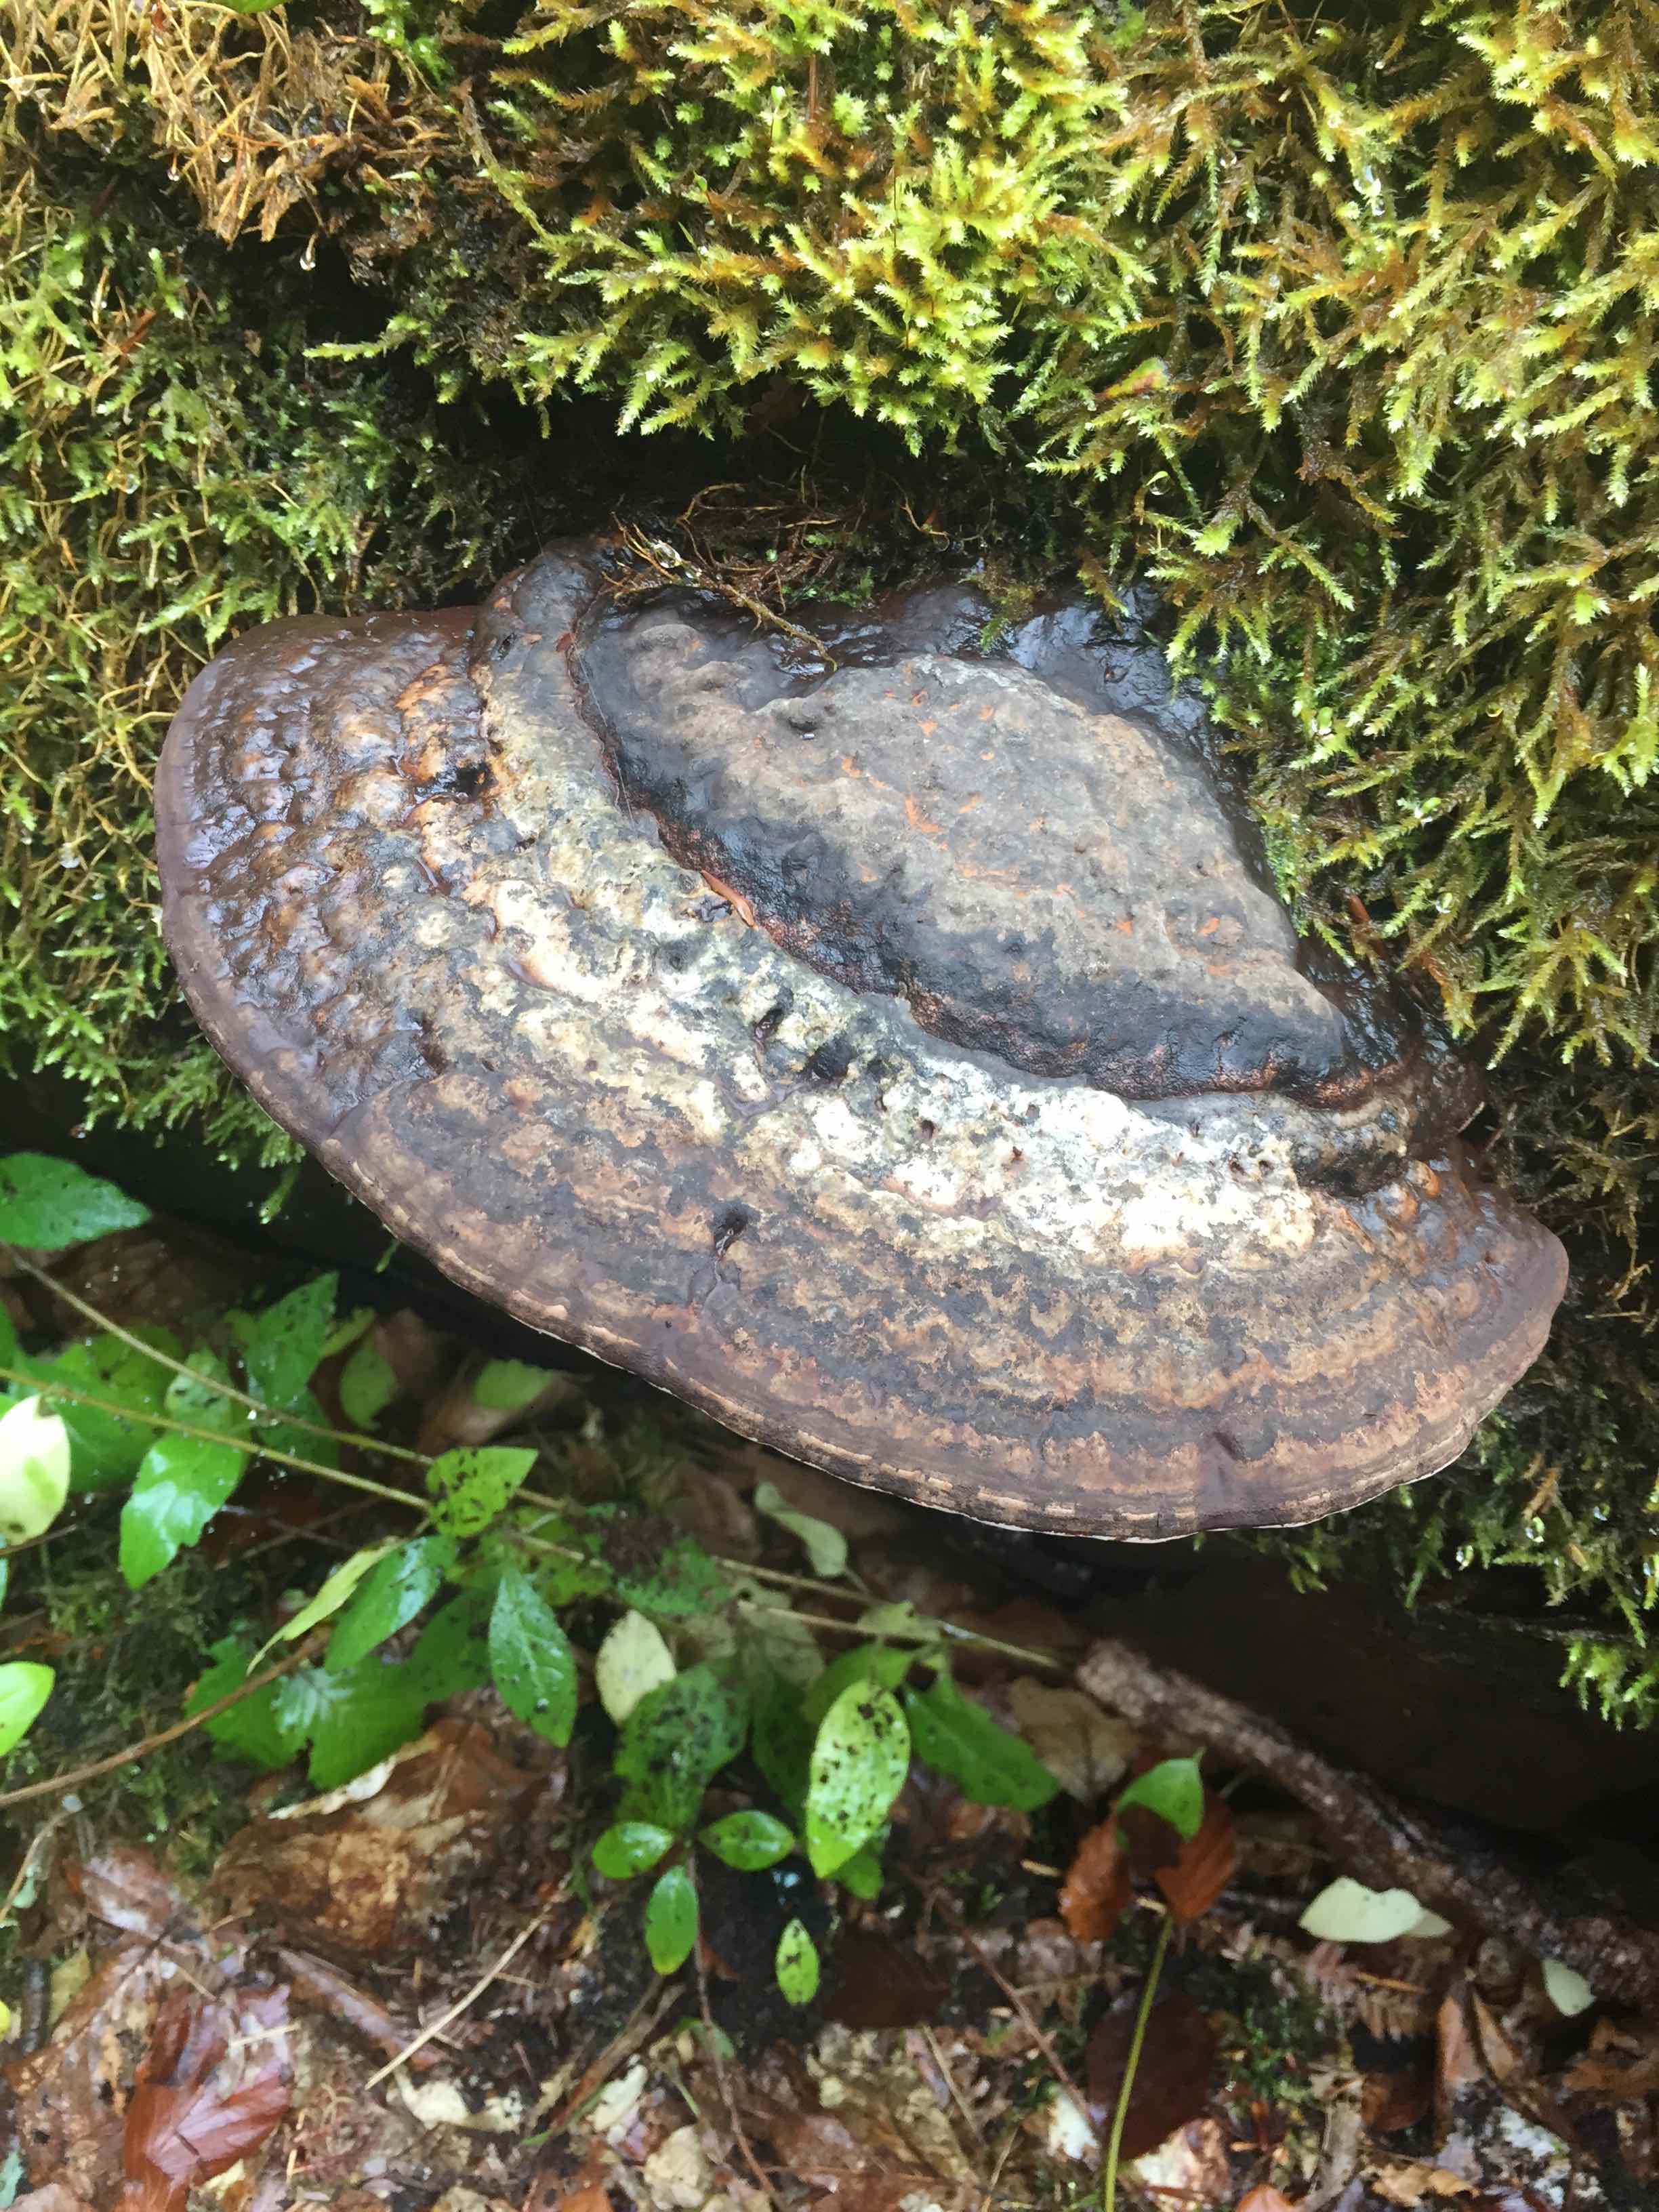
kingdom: Fungi
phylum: Basidiomycota
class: Agaricomycetes
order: Polyporales
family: Polyporaceae
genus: Ganoderma
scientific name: Ganoderma applanatum
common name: flad lakporesvamp
